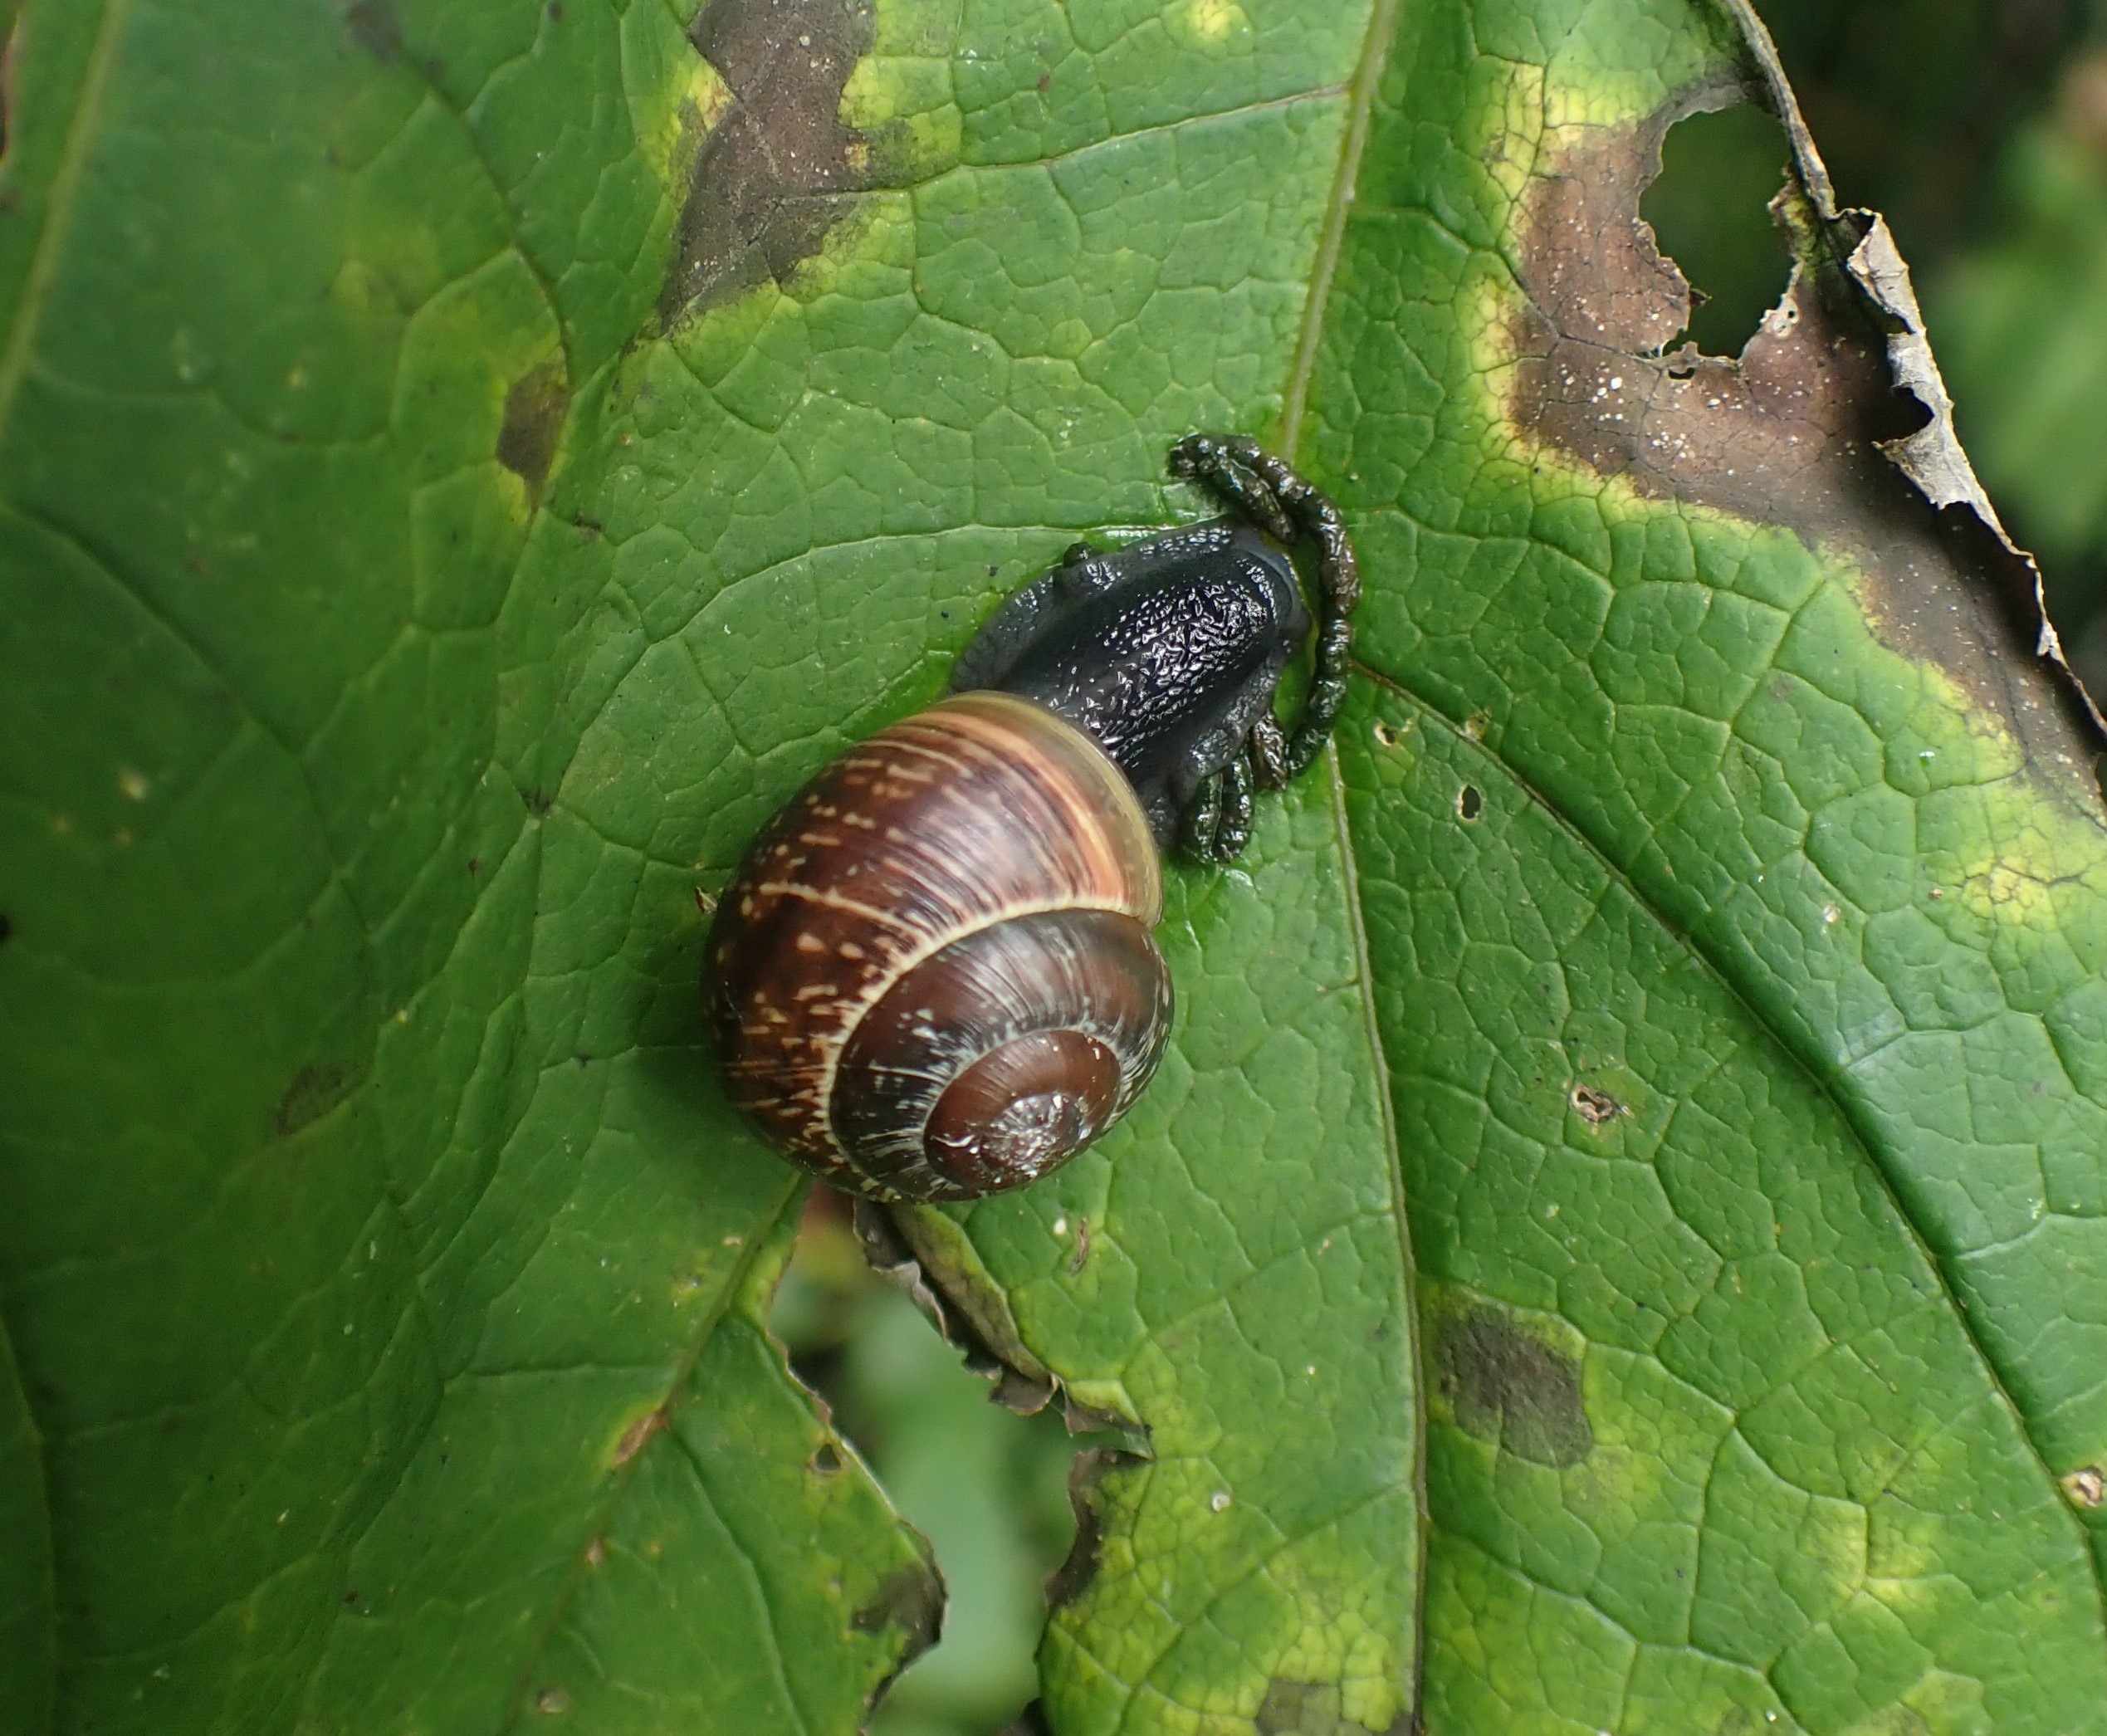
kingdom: Animalia
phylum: Mollusca
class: Gastropoda
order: Stylommatophora
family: Helicidae
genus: Arianta
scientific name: Arianta arbustorum
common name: Kratsnegl
